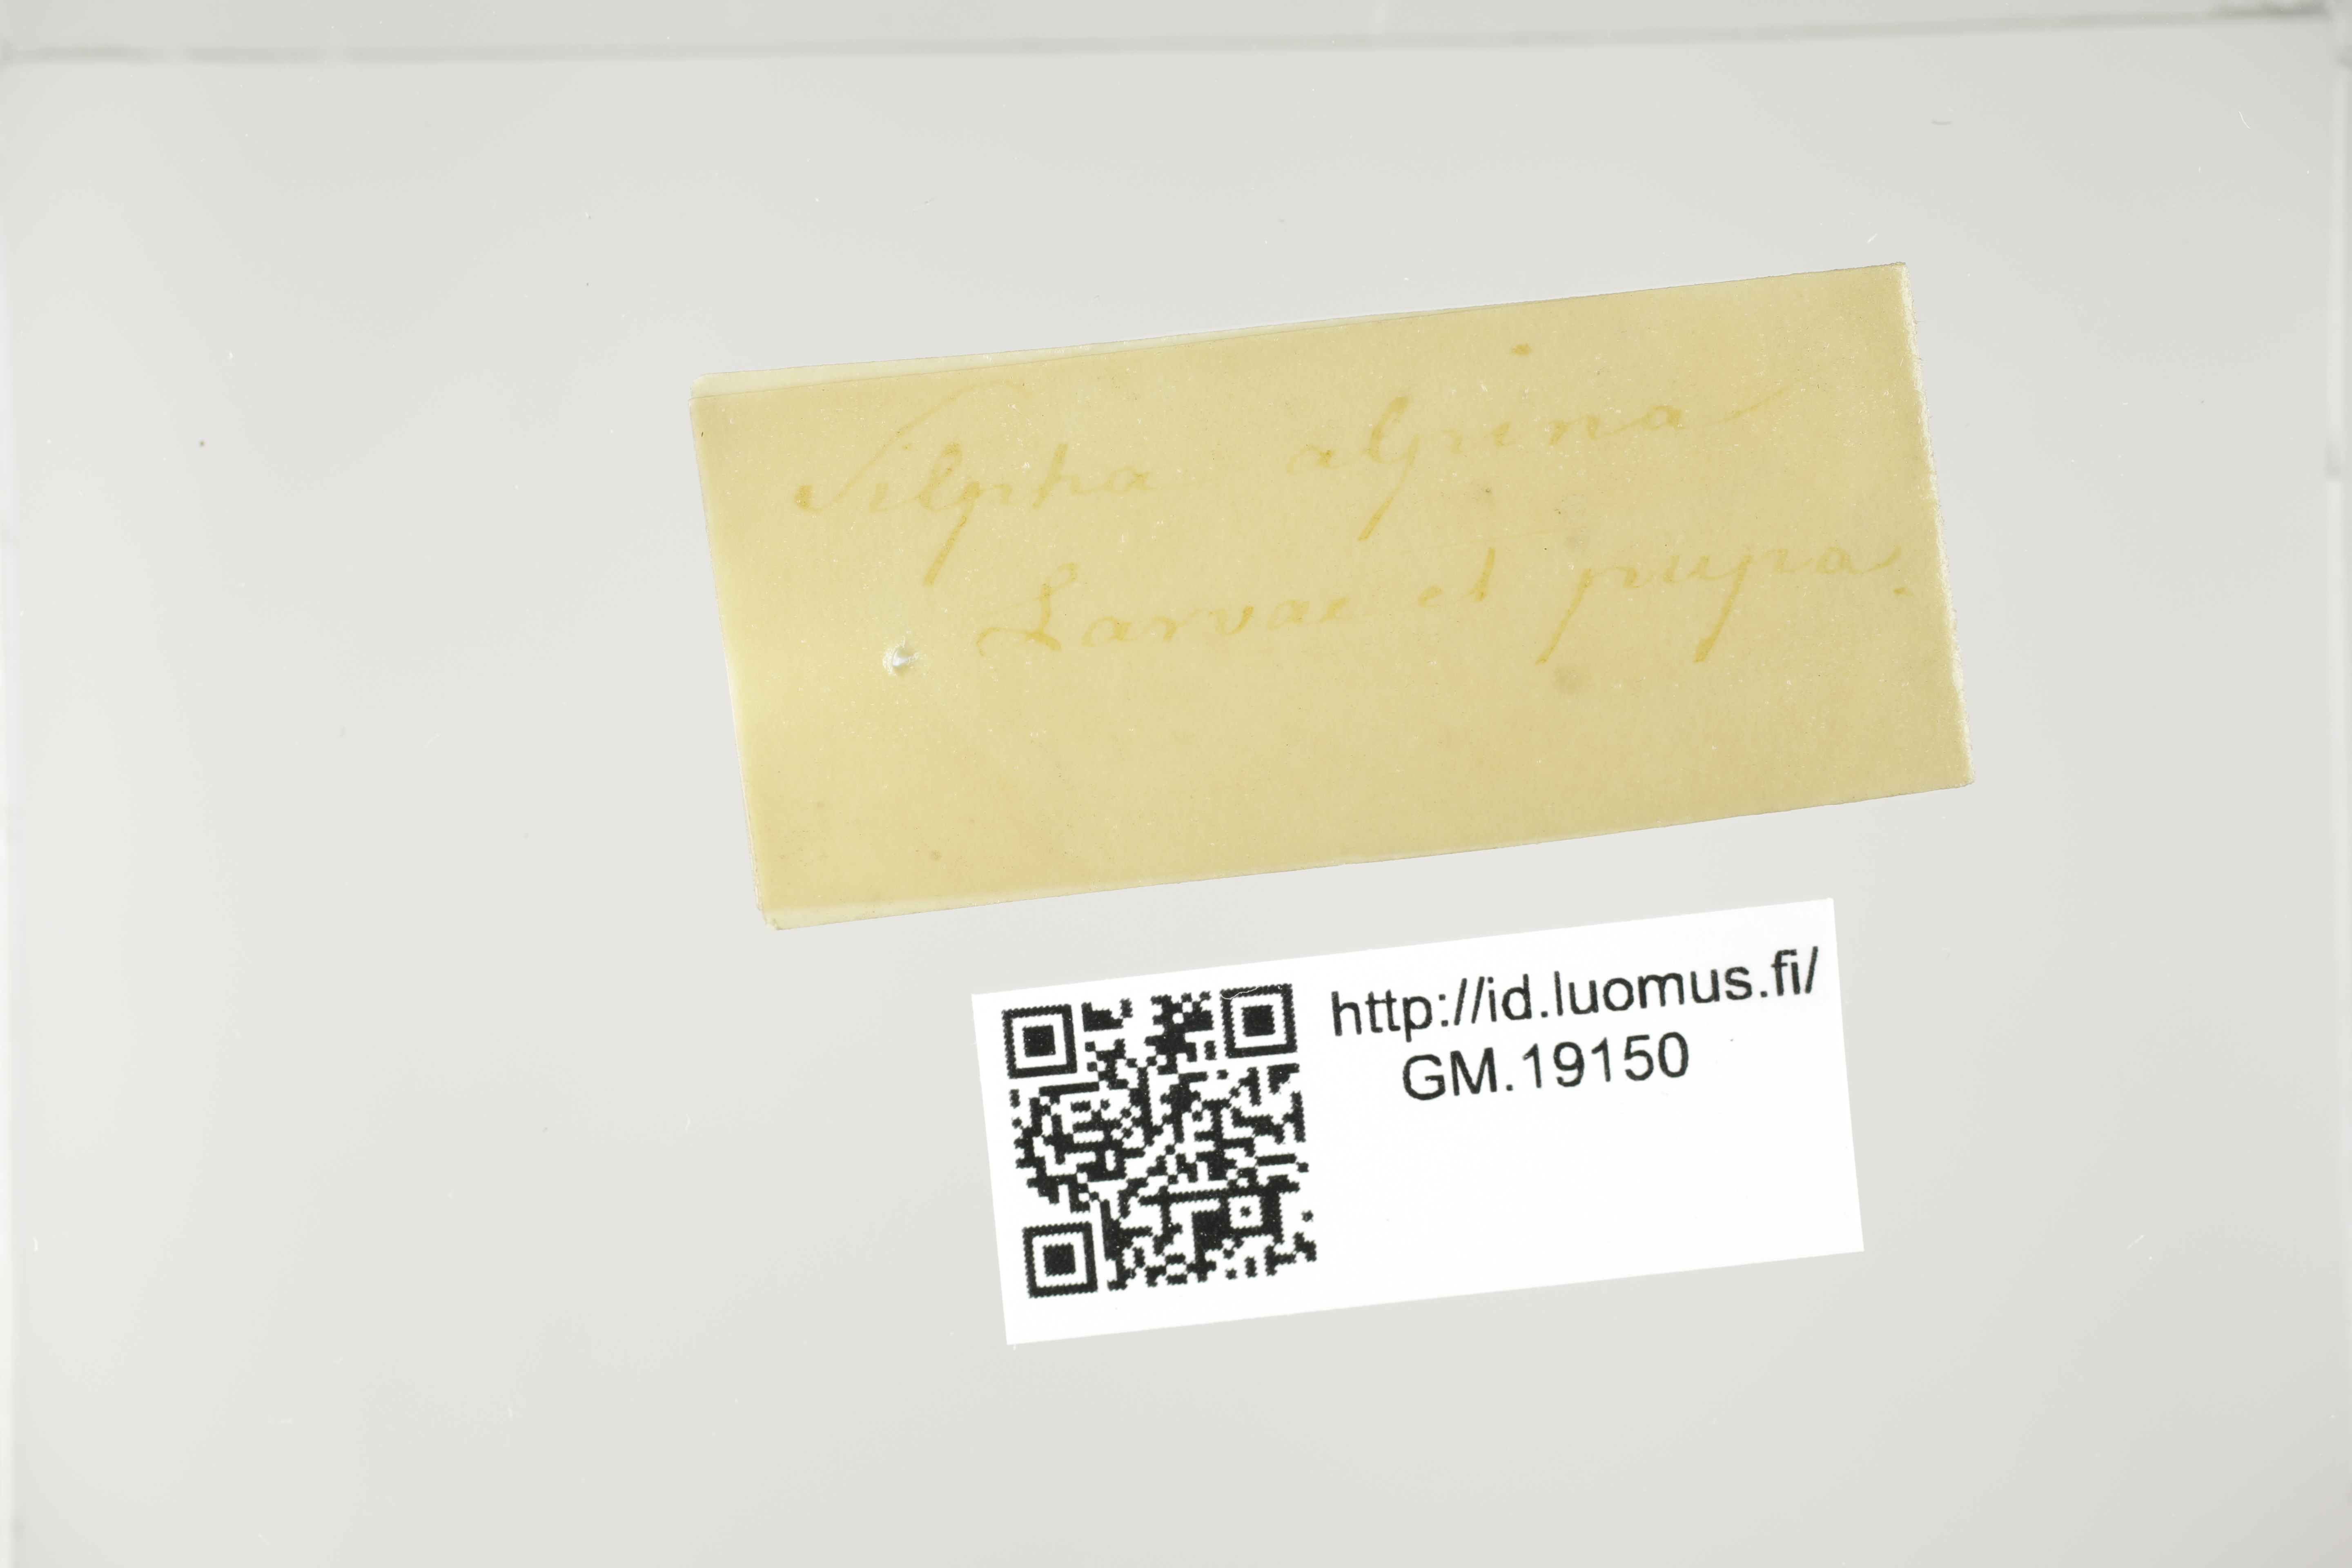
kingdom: Animalia
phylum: Arthropoda
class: Insecta
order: Coleoptera
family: Staphylinidae
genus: Silpha
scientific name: Silpha tyrolensis
